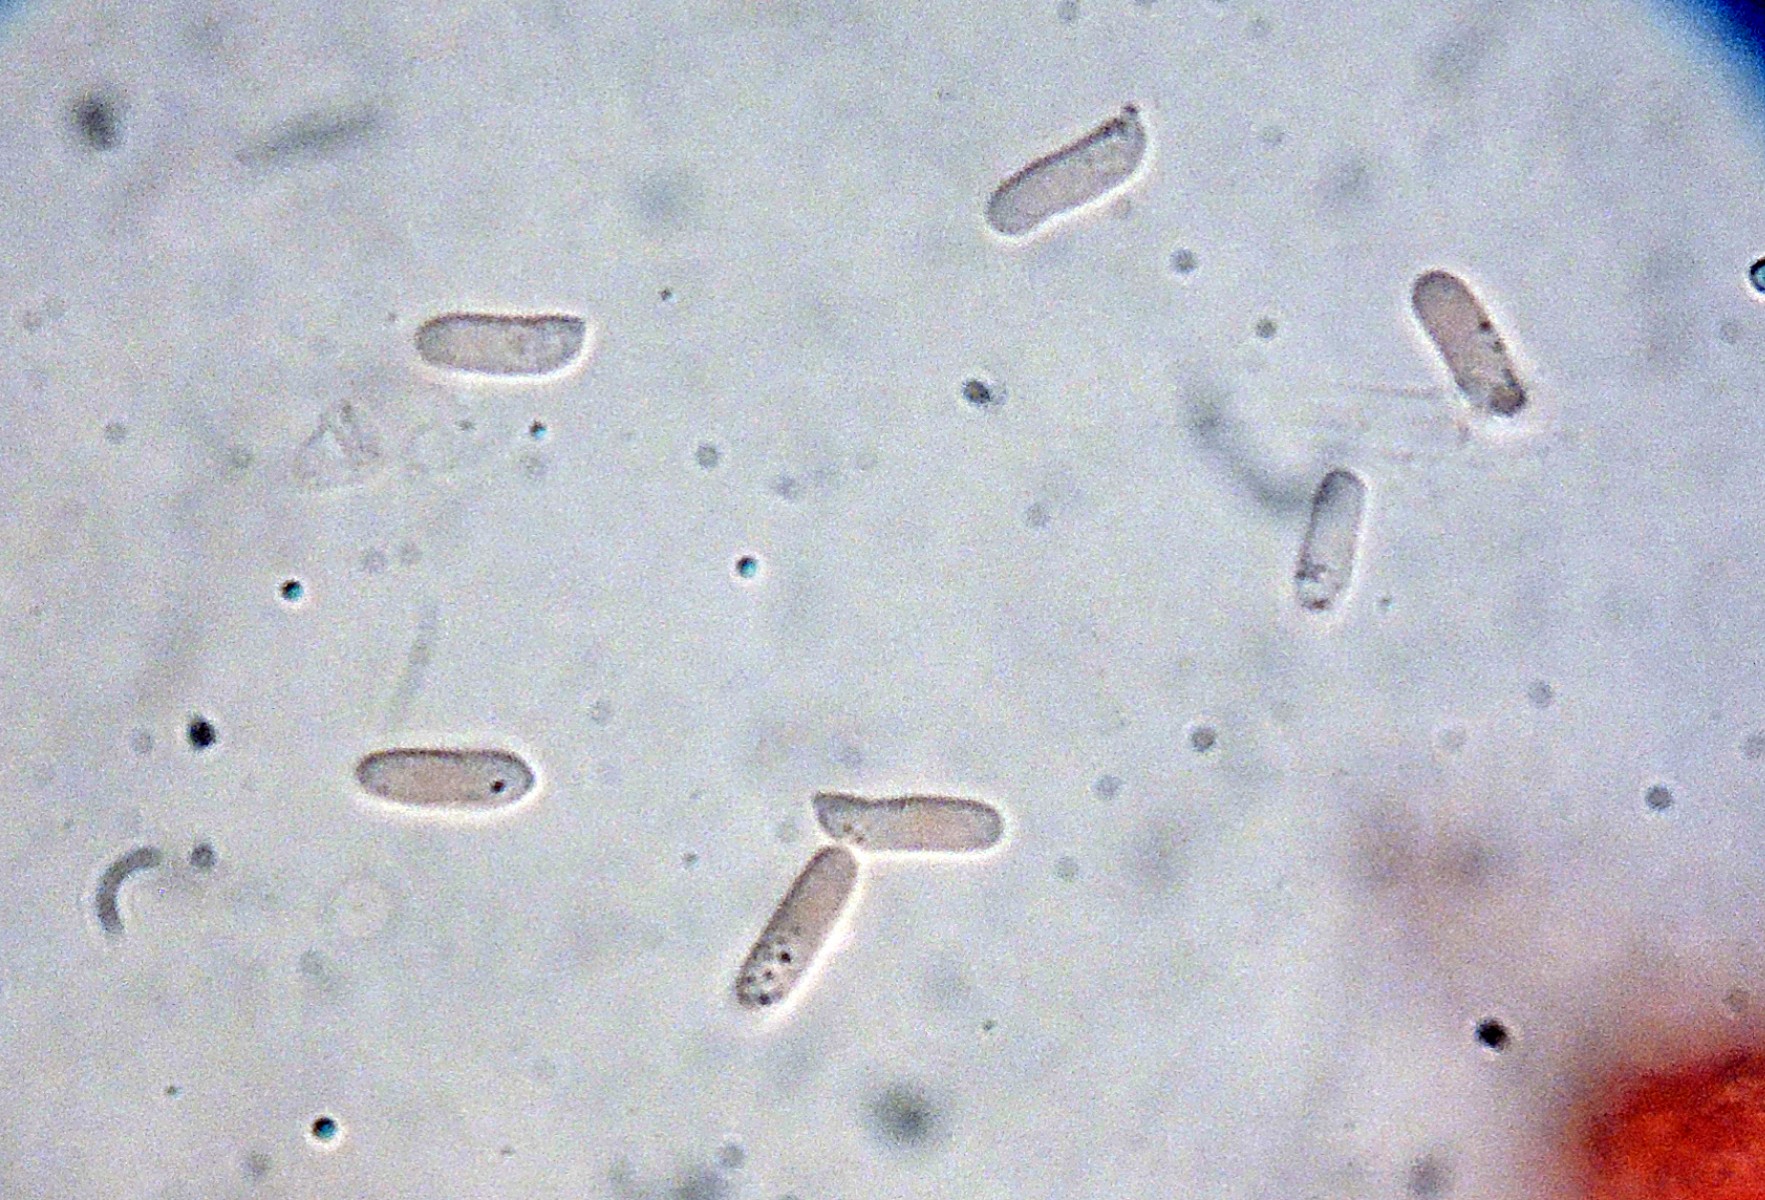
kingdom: Fungi
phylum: Basidiomycota
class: Agaricomycetes
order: Polyporales
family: Fomitopsidaceae
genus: Fomitopsis
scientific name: Fomitopsis
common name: pile-skiveporesvamp
